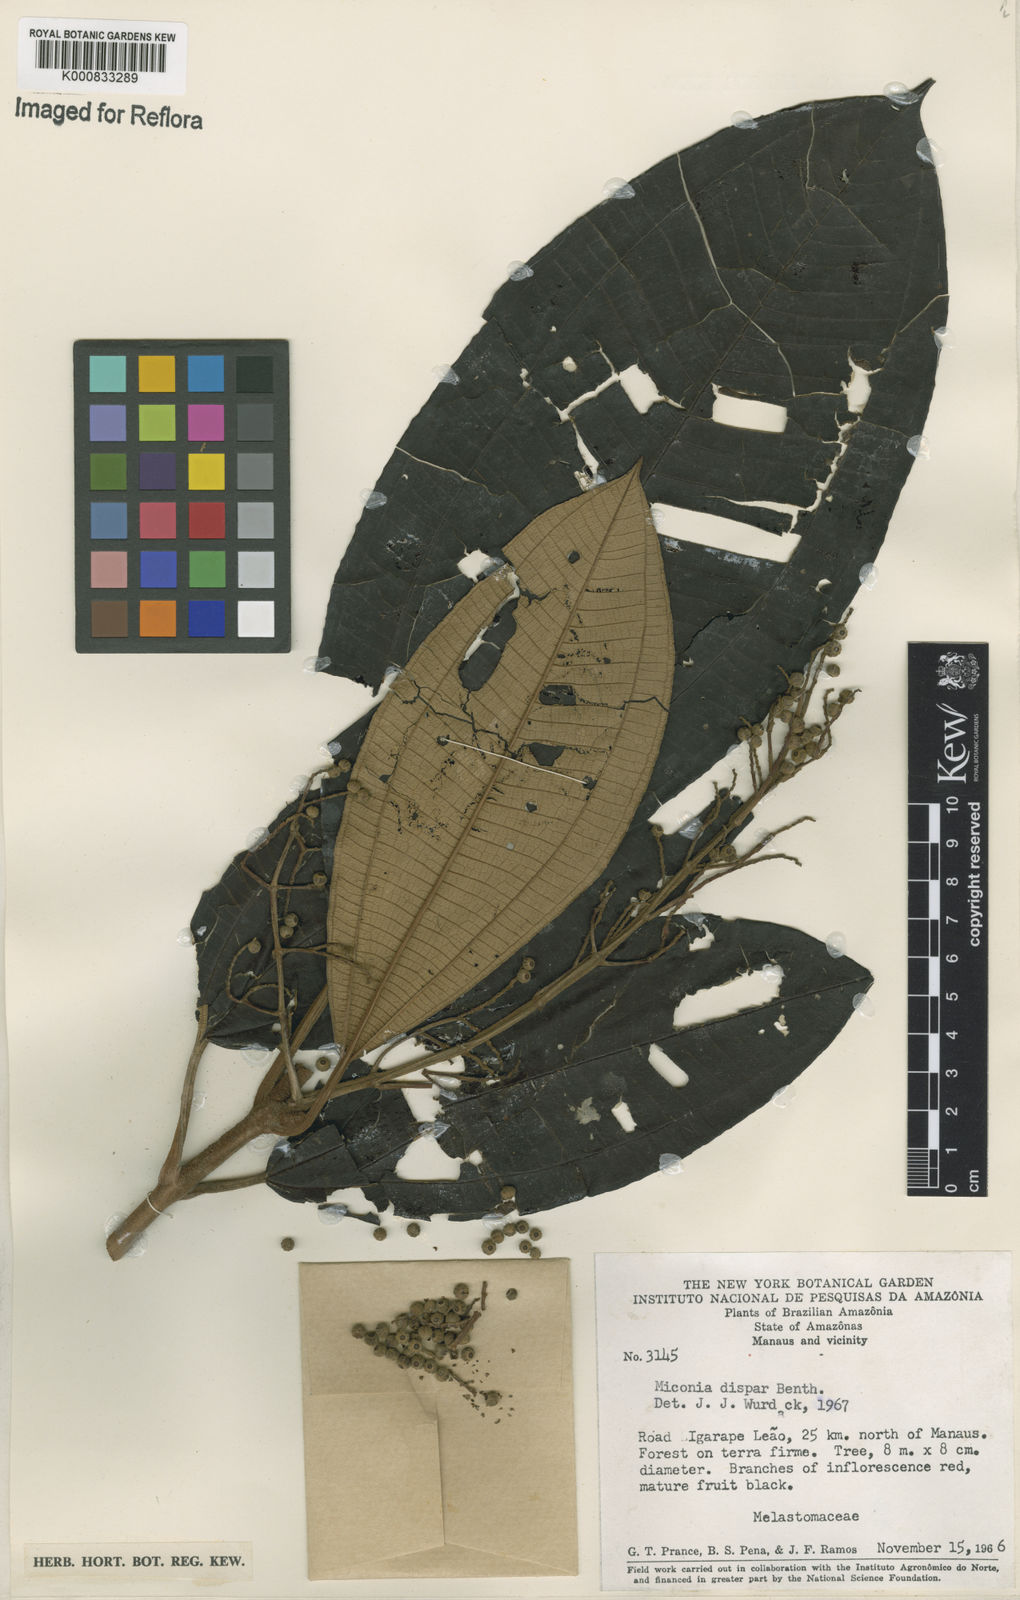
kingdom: Plantae
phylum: Tracheophyta
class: Magnoliopsida
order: Myrtales
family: Melastomataceae
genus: Miconia
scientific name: Miconia dispar
